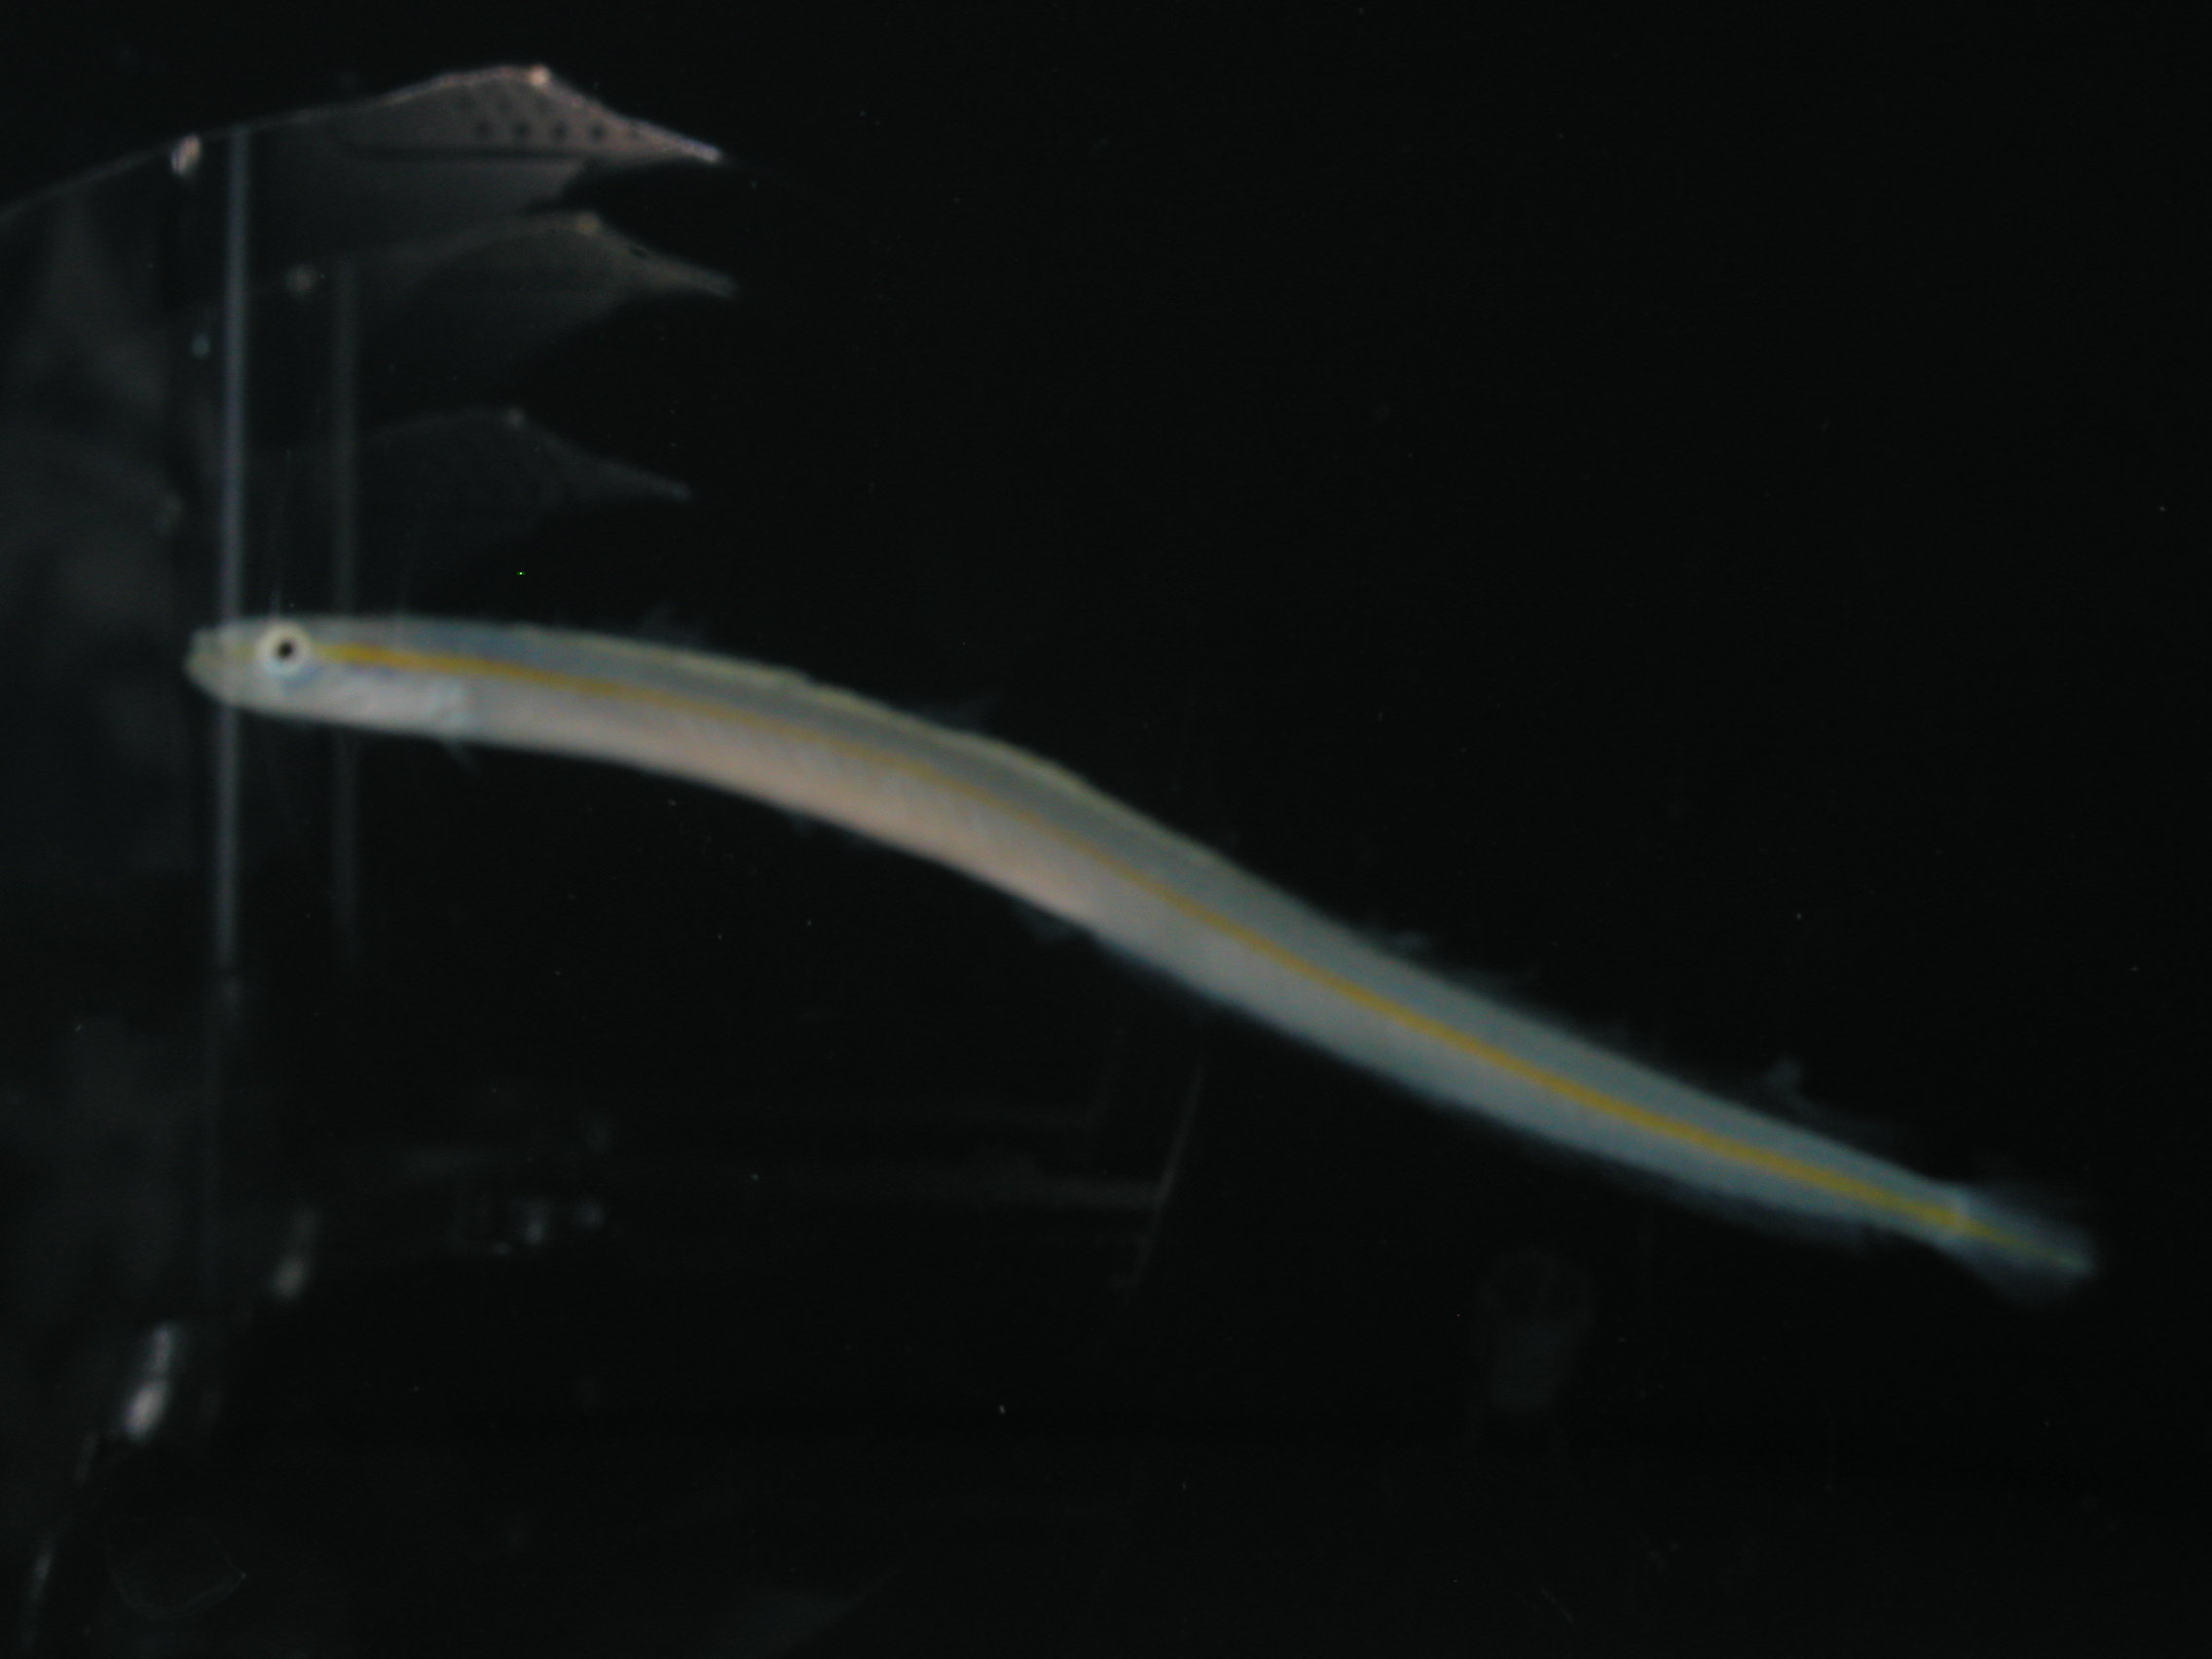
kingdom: Animalia
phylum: Chordata
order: Perciformes
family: Microdesmidae
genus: Gunnellichthys
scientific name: Gunnellichthys viridescens
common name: Yellowstripe wormfish
